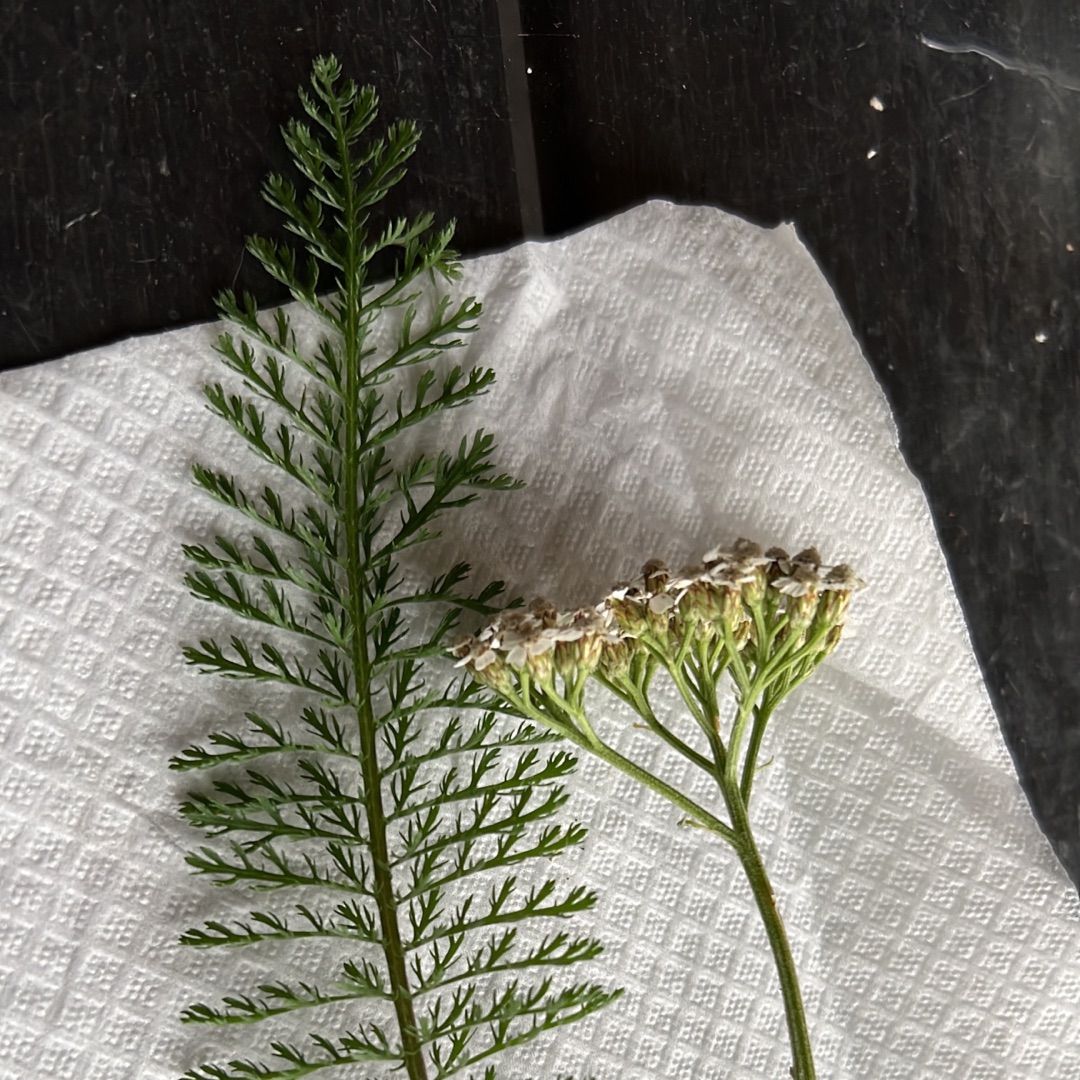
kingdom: Plantae
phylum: Tracheophyta
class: Magnoliopsida
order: Asterales
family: Asteraceae
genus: Achillea
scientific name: Achillea millefolium
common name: Almindelig røllike
